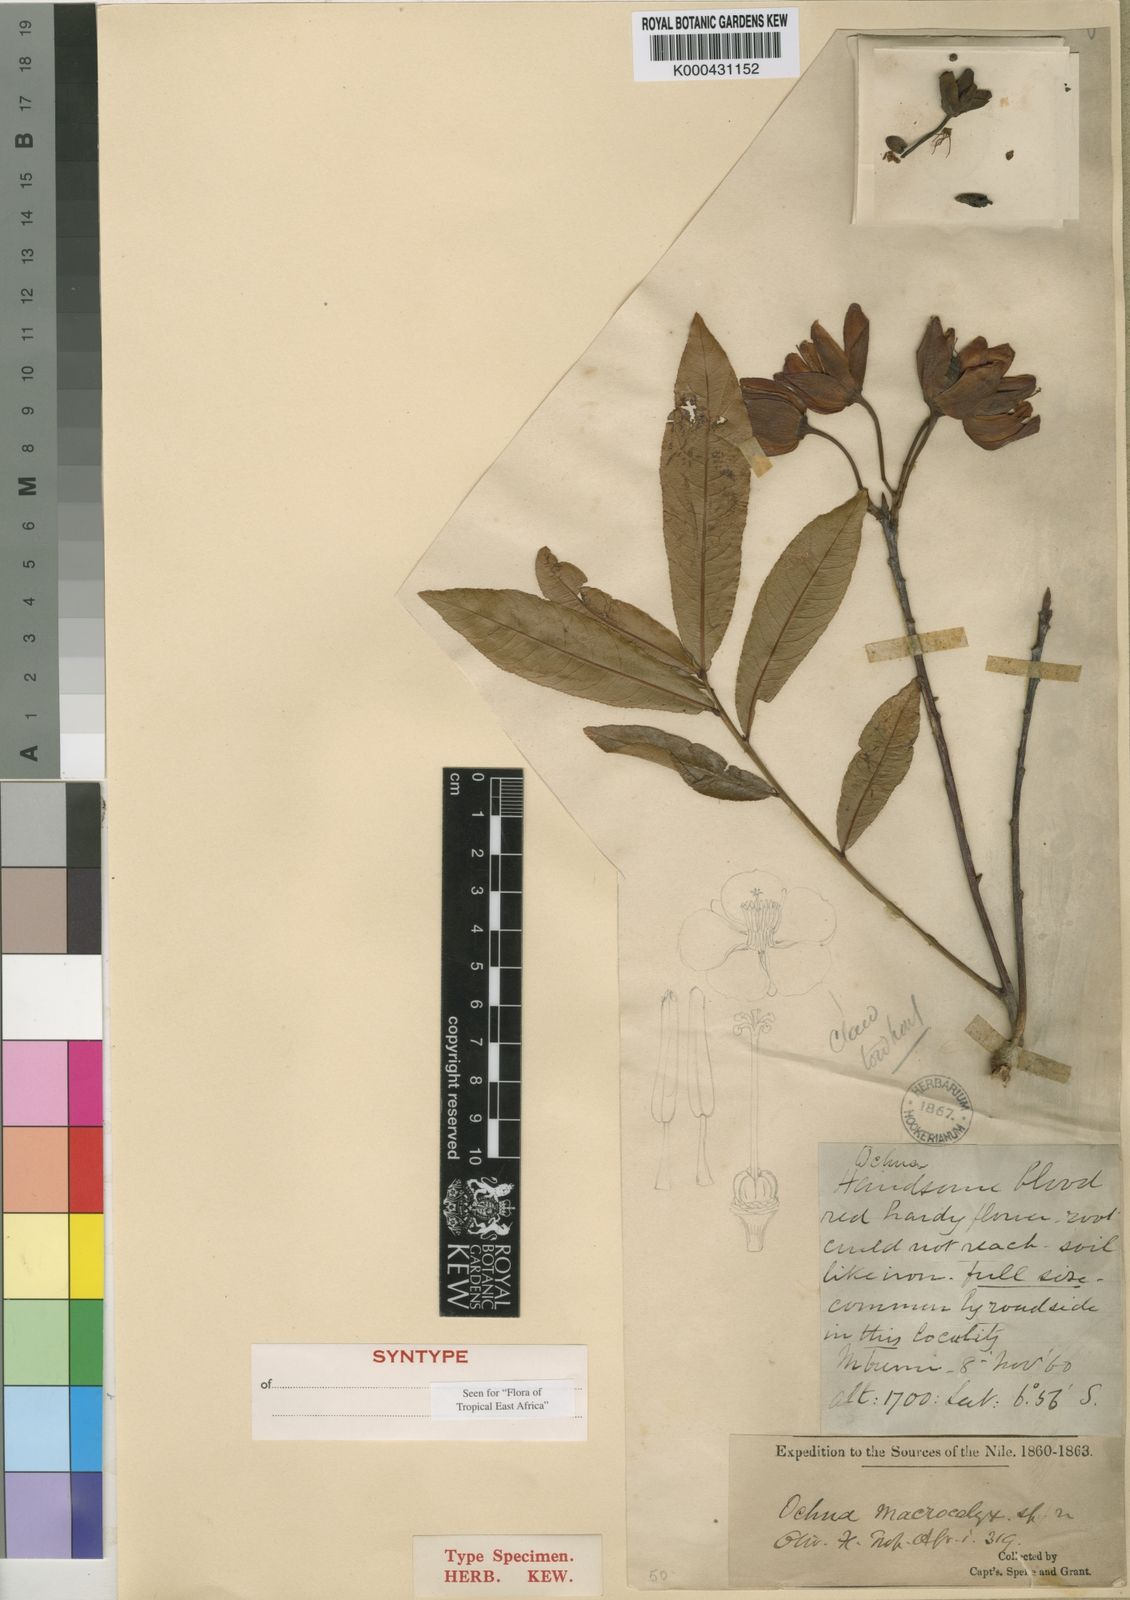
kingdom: Plantae
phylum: Tracheophyta
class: Magnoliopsida
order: Malpighiales
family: Ochnaceae
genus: Ochna
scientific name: Ochna macrocalyx
